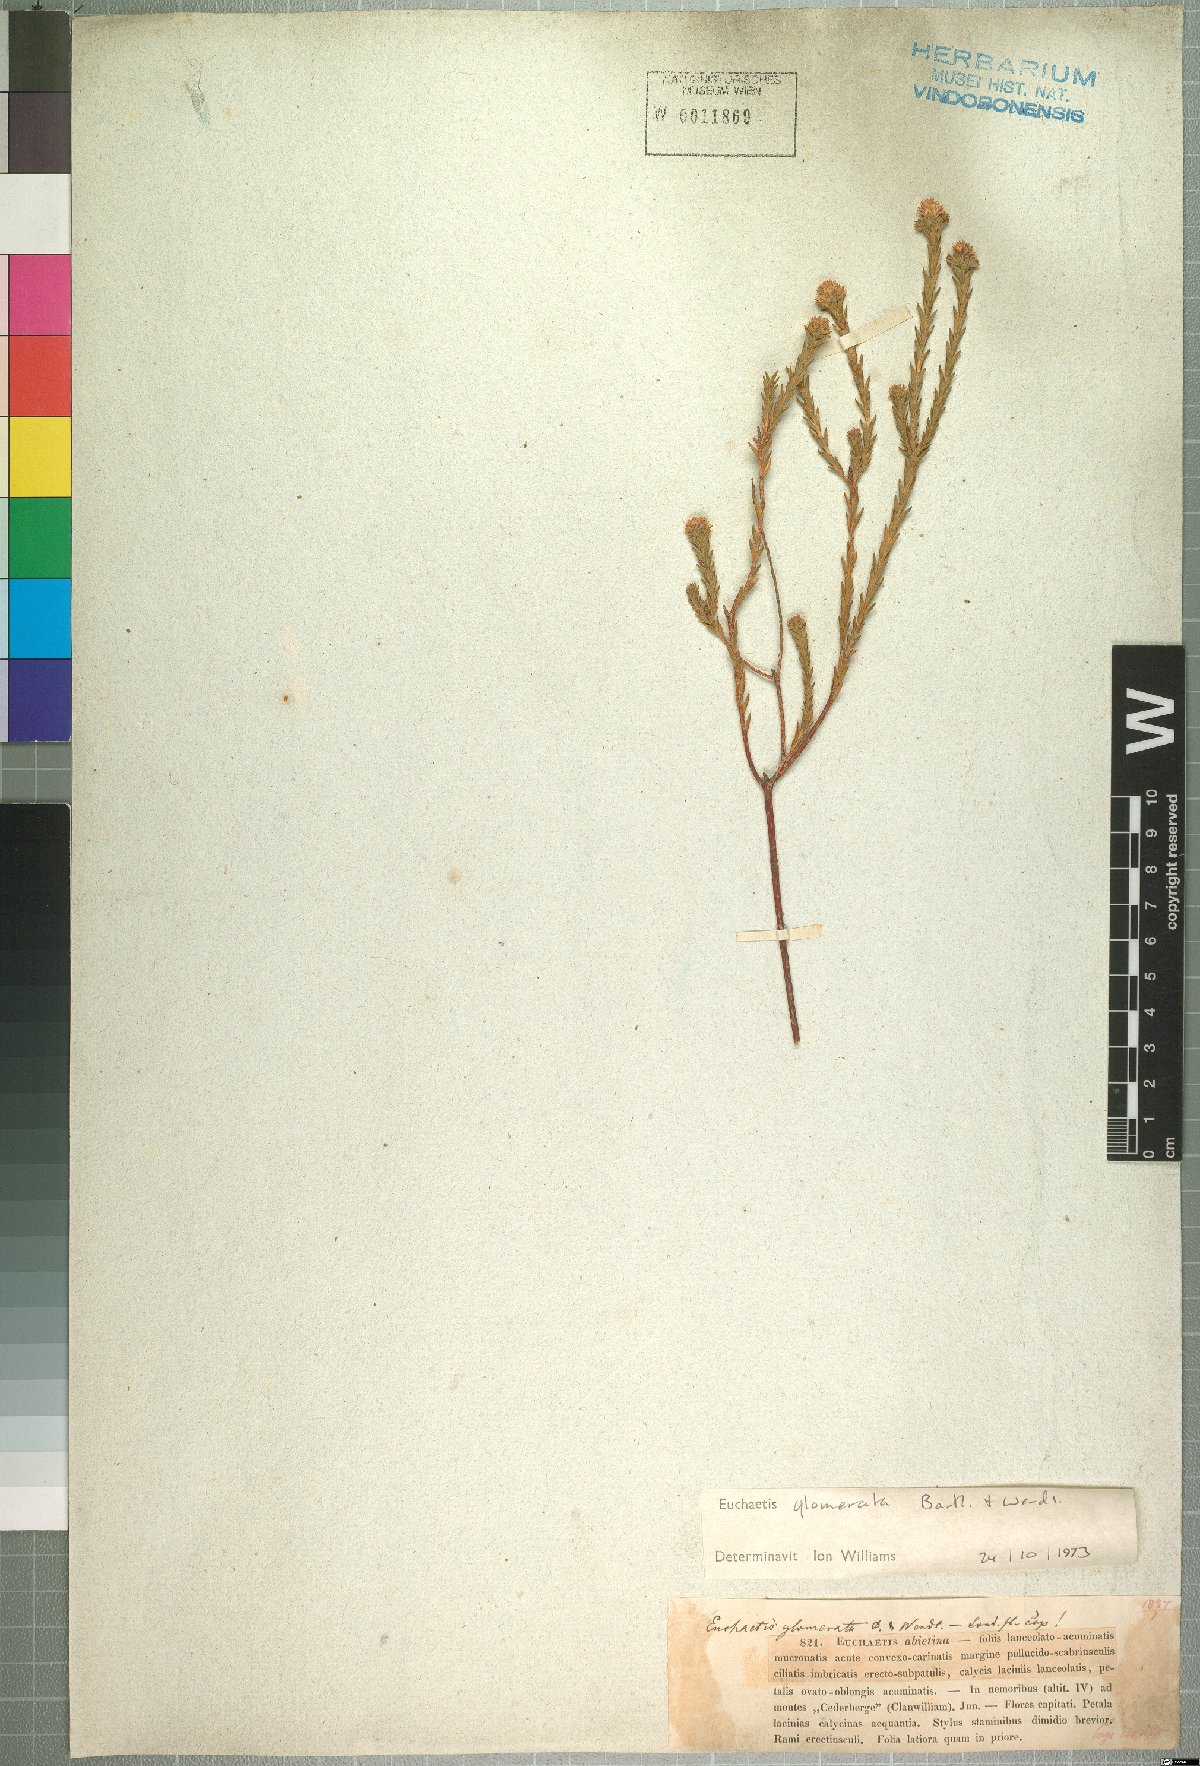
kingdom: Plantae
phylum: Tracheophyta
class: Magnoliopsida
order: Sapindales
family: Rutaceae
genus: Euchaetis
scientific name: Euchaetis glomerata
